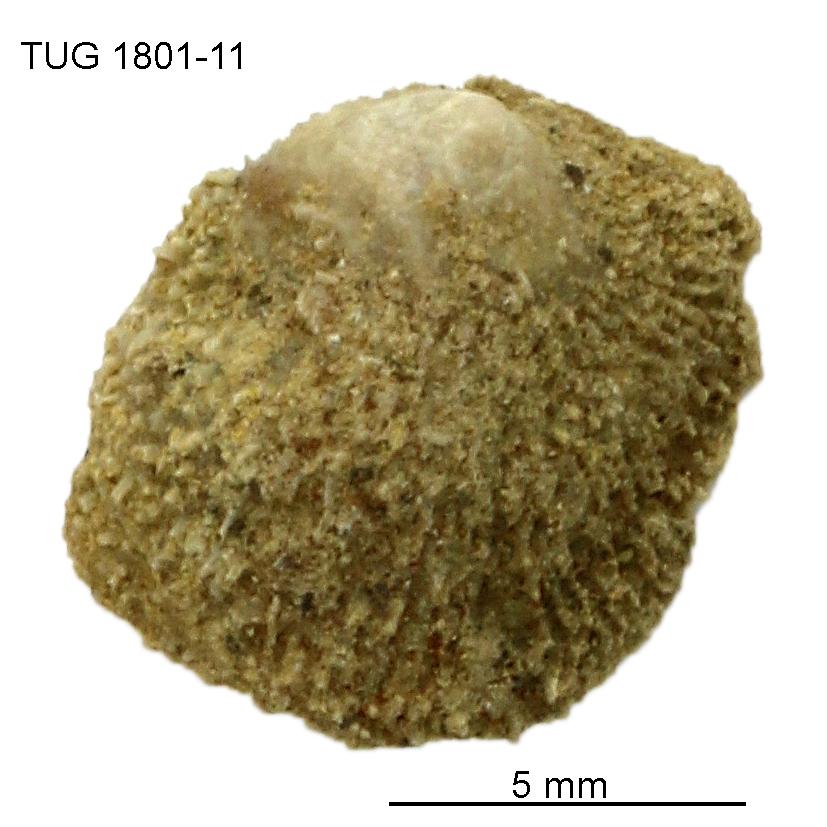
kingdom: Animalia
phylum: Brachiopoda
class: Craniata
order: Craniida
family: Craniidae
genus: Philhedra
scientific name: Philhedra
